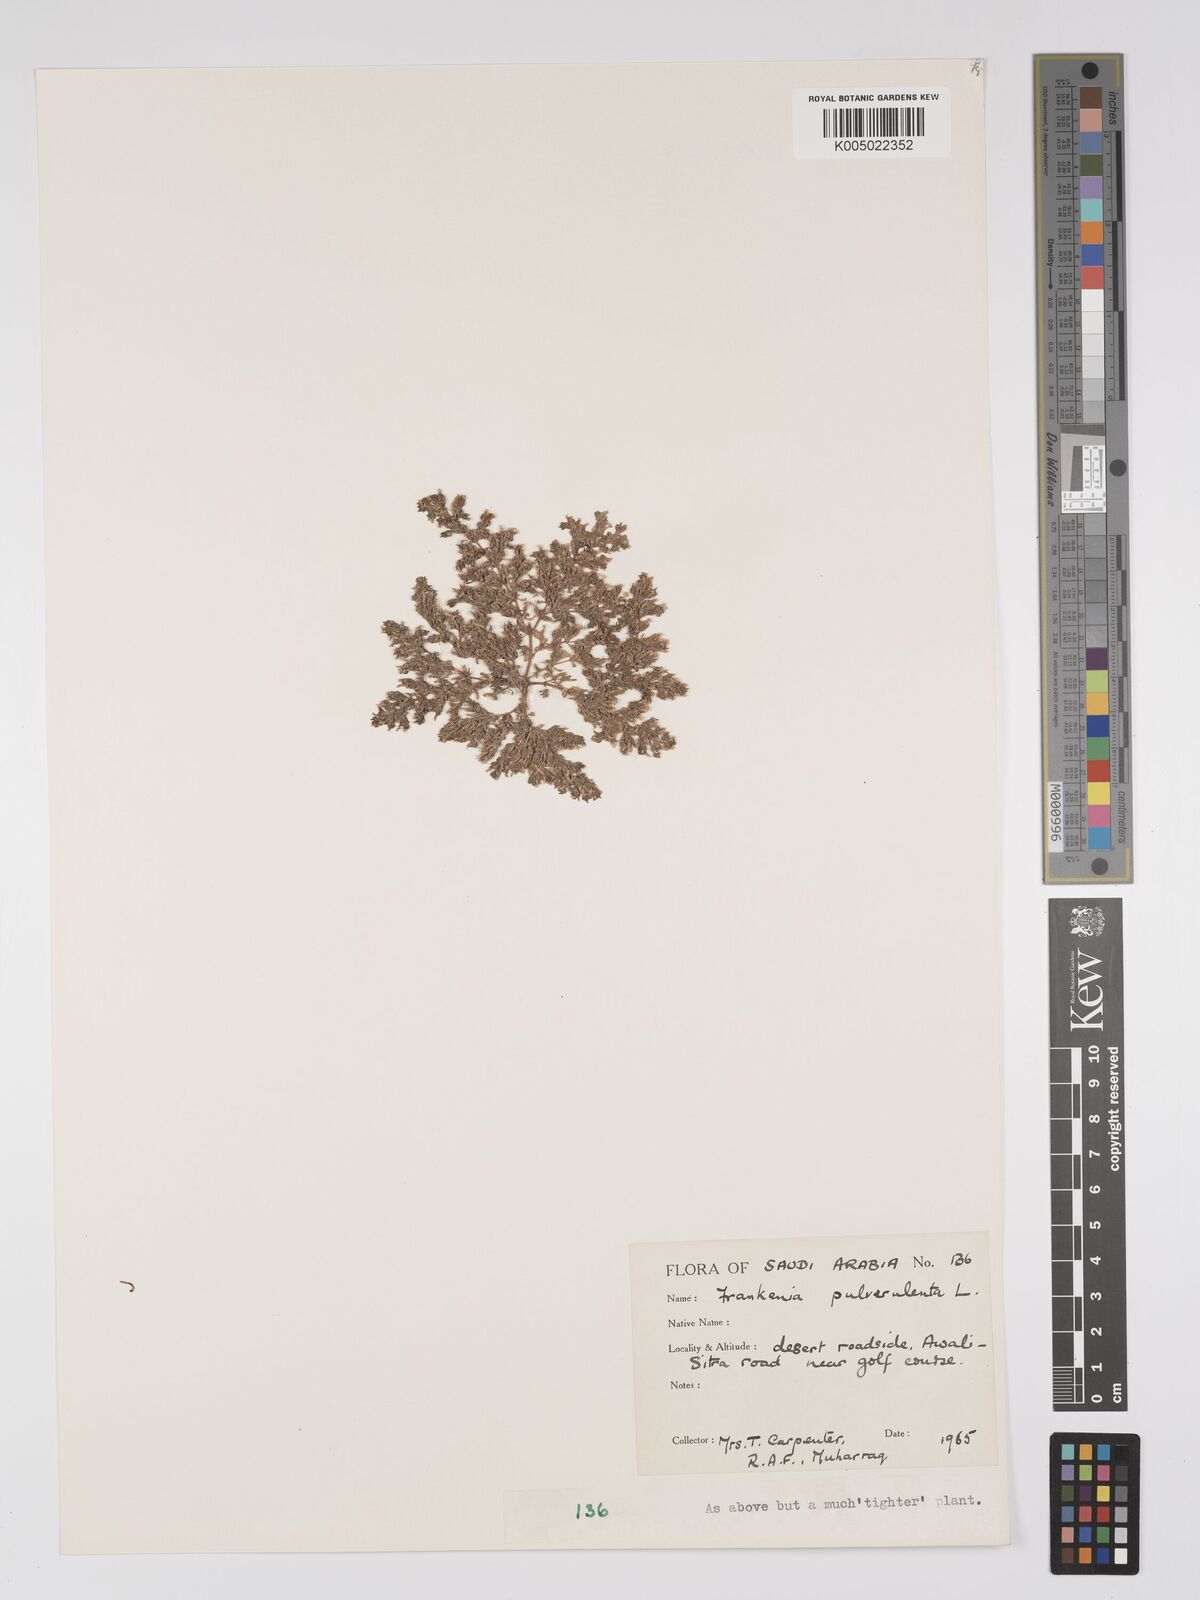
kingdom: Plantae
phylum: Tracheophyta
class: Magnoliopsida
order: Caryophyllales
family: Frankeniaceae
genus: Frankenia
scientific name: Frankenia pulverulenta
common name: European seaheath
